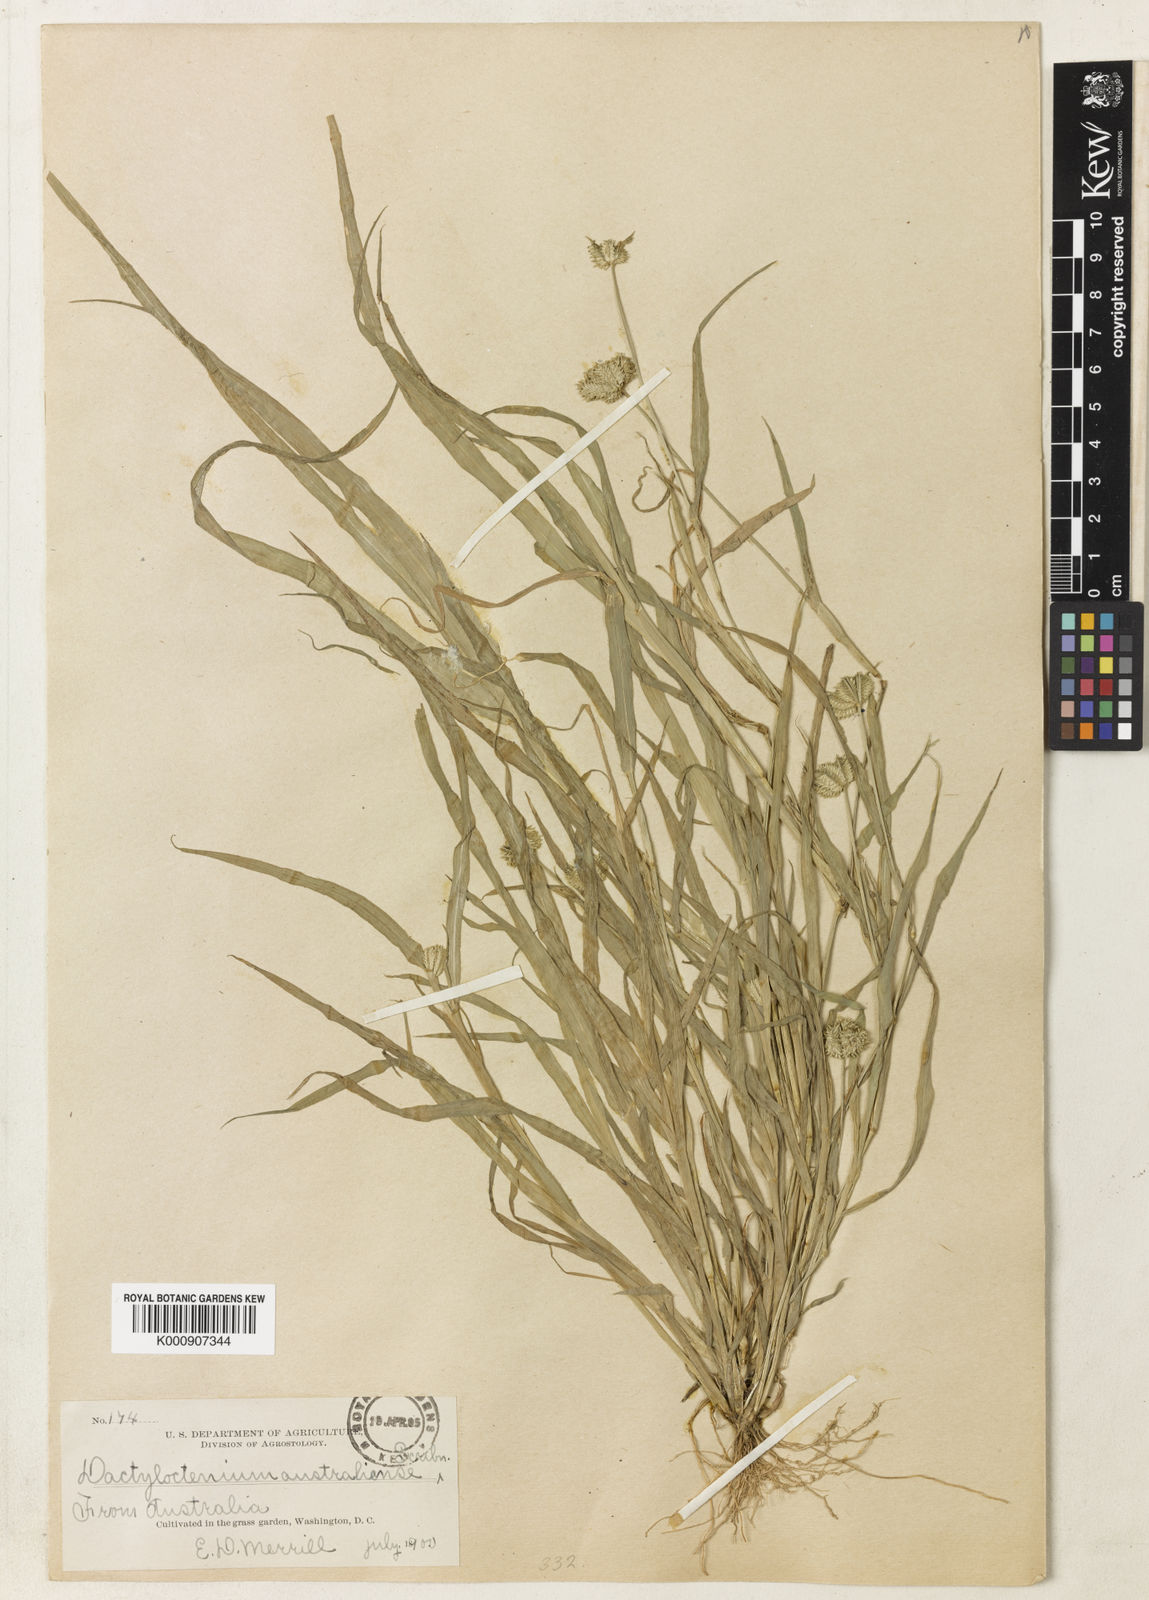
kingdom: Plantae
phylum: Tracheophyta
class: Liliopsida
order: Poales
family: Poaceae
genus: Dactyloctenium
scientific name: Dactyloctenium radulans
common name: Button-grass
